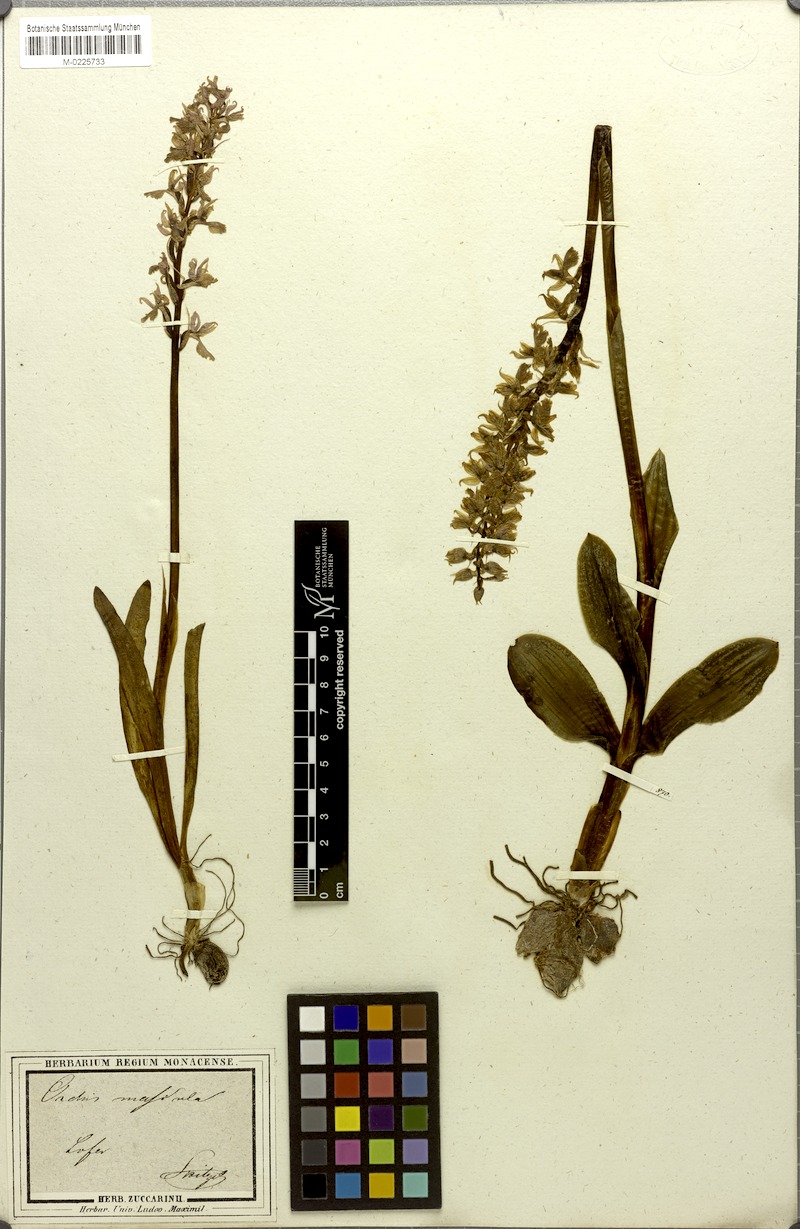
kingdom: Plantae
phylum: Tracheophyta
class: Liliopsida
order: Asparagales
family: Orchidaceae
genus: Orchis
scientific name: Orchis mascula
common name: Early-purple orchid
